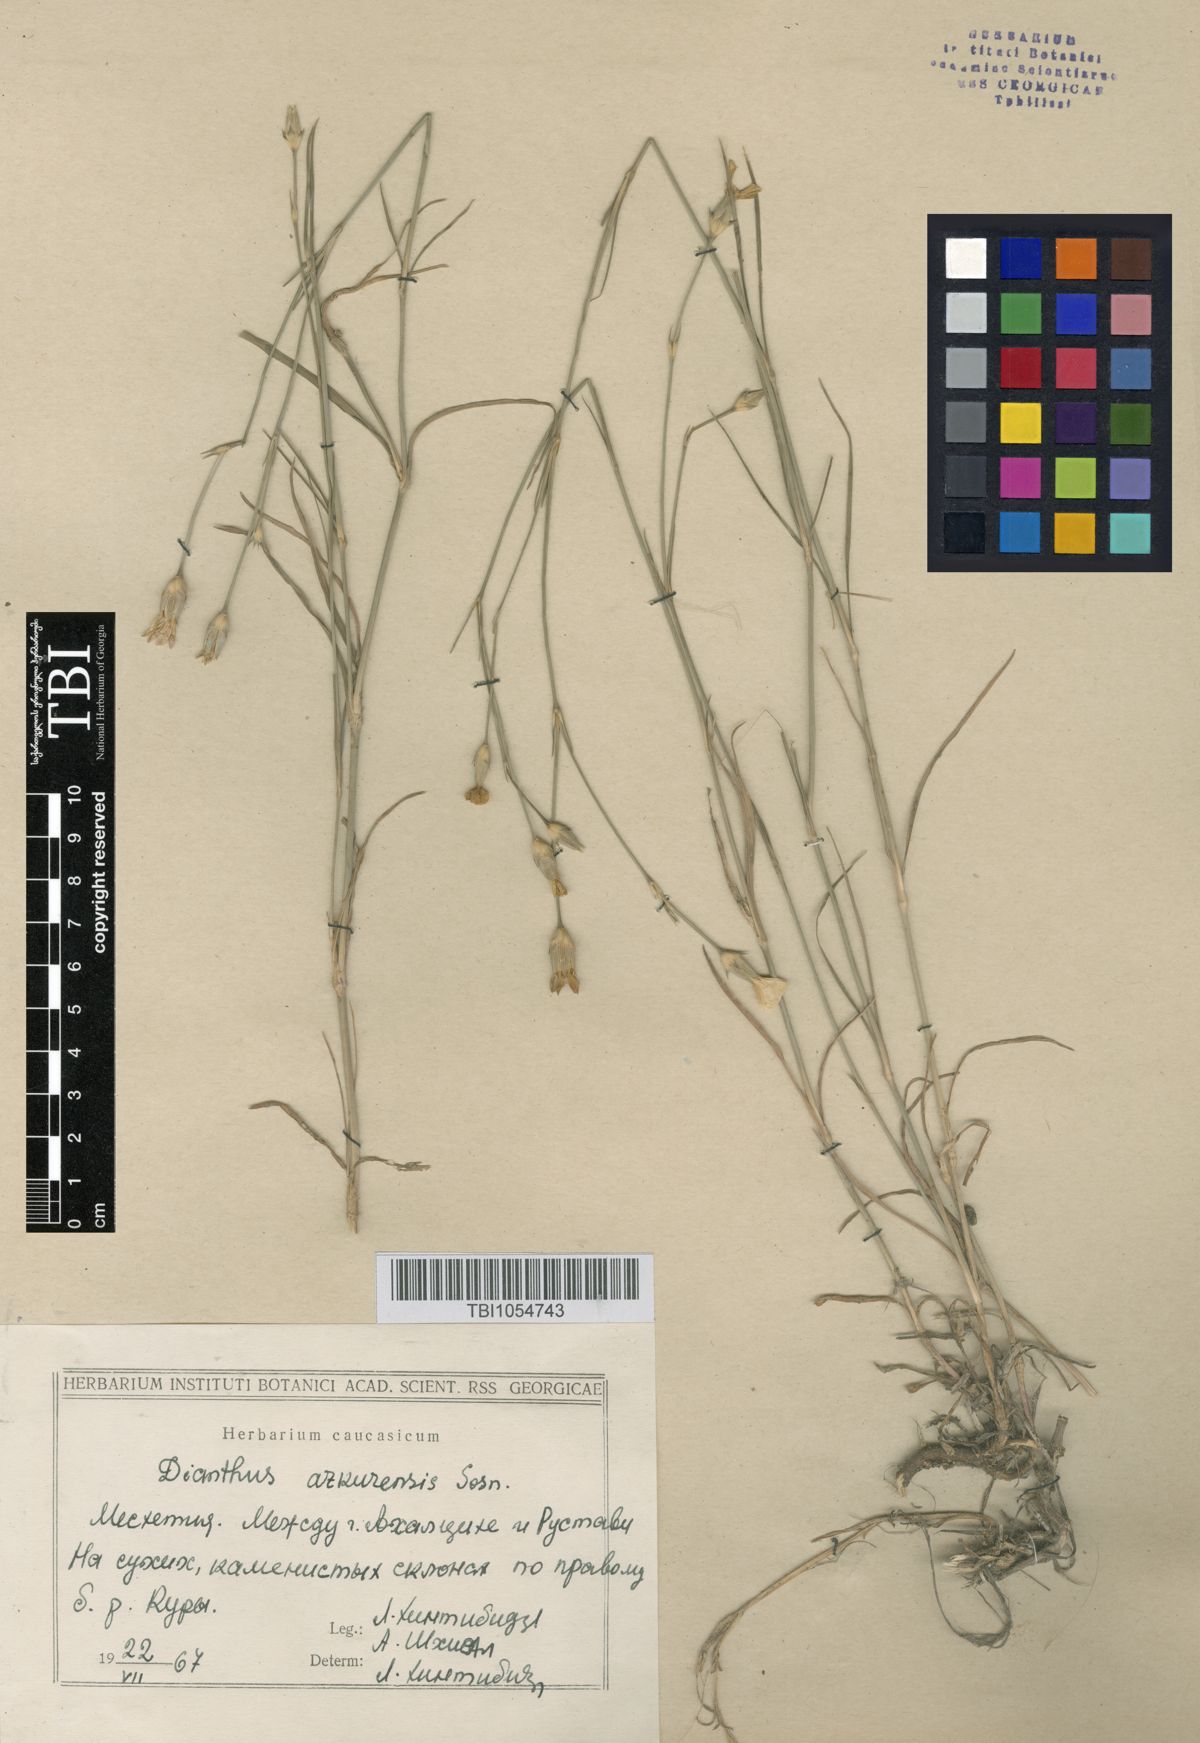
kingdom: Plantae
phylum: Tracheophyta
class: Magnoliopsida
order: Caryophyllales
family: Caryophyllaceae
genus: Dianthus
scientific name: Dianthus
